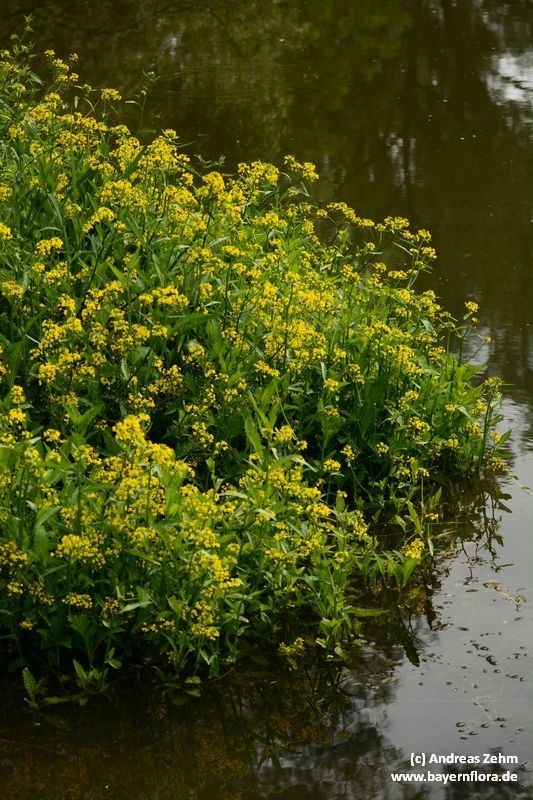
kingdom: Plantae
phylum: Tracheophyta
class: Magnoliopsida
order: Brassicales
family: Brassicaceae
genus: Rorippa
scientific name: Rorippa amphibia
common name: Great yellow-cress
